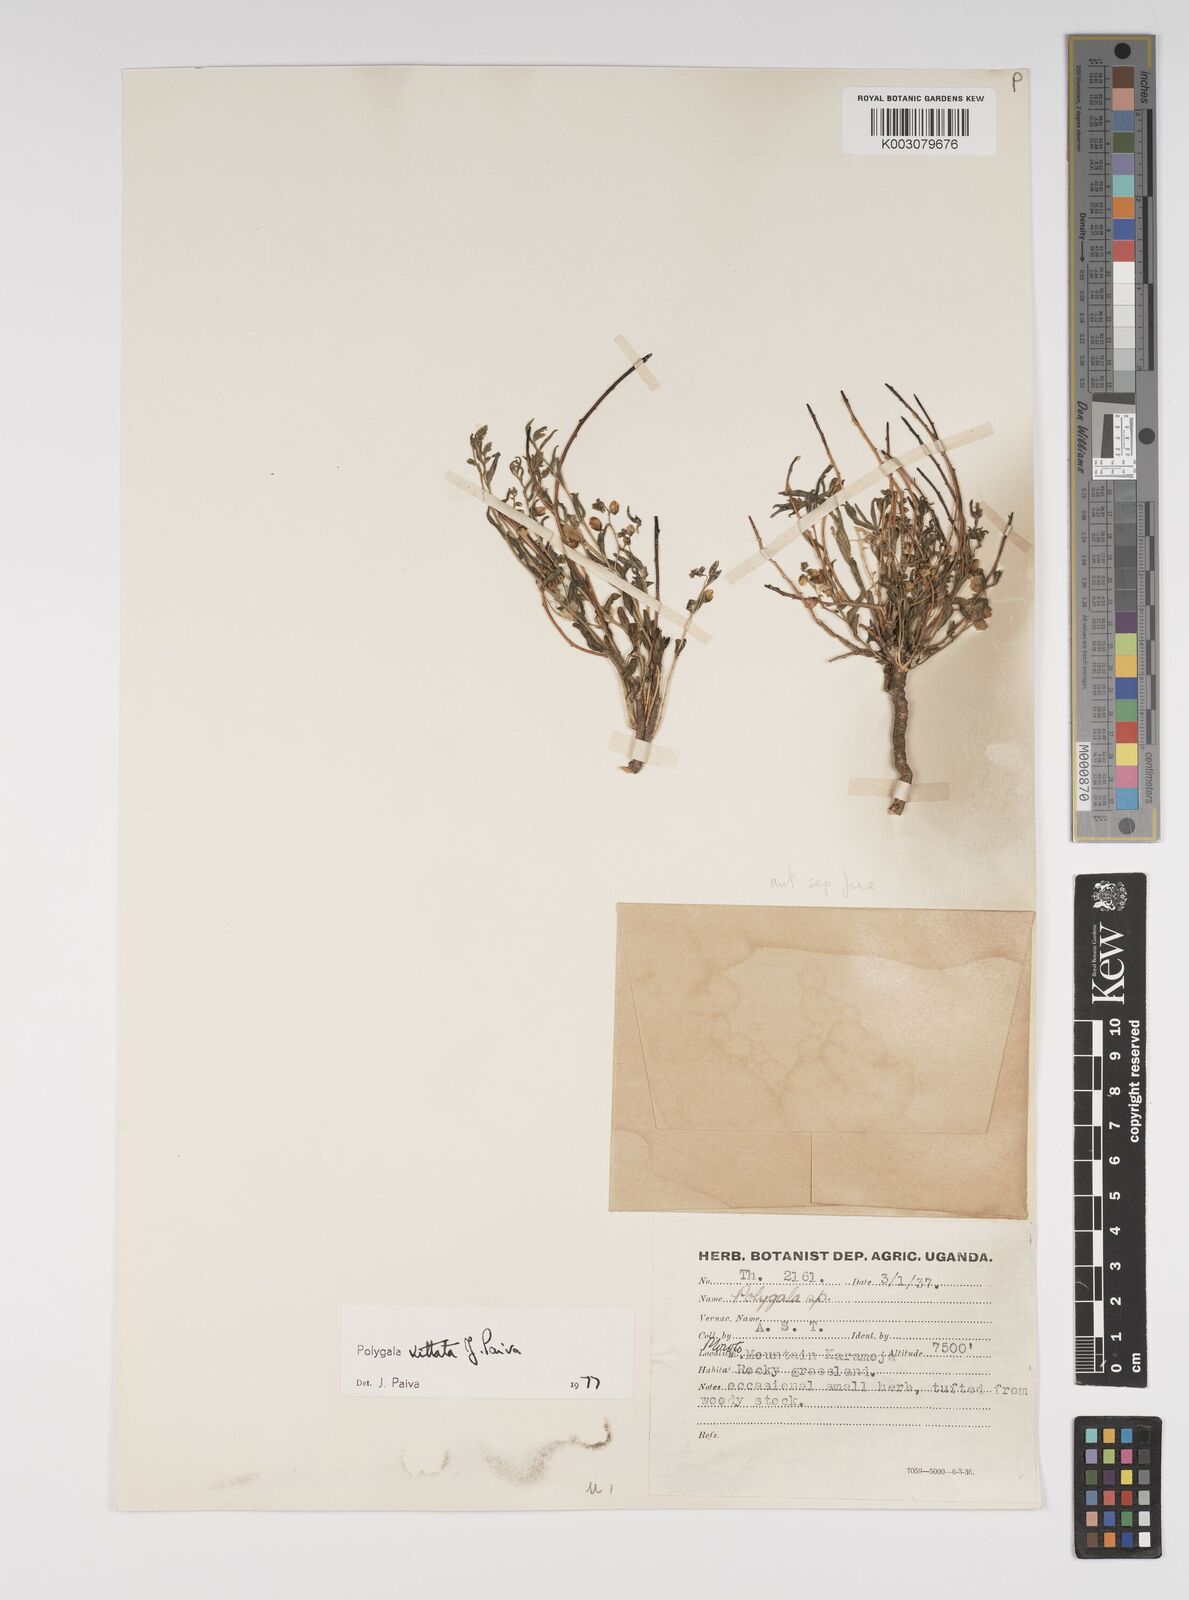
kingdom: Plantae
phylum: Tracheophyta
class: Magnoliopsida
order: Fabales
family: Polygalaceae
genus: Polygala
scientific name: Polygala vittata
